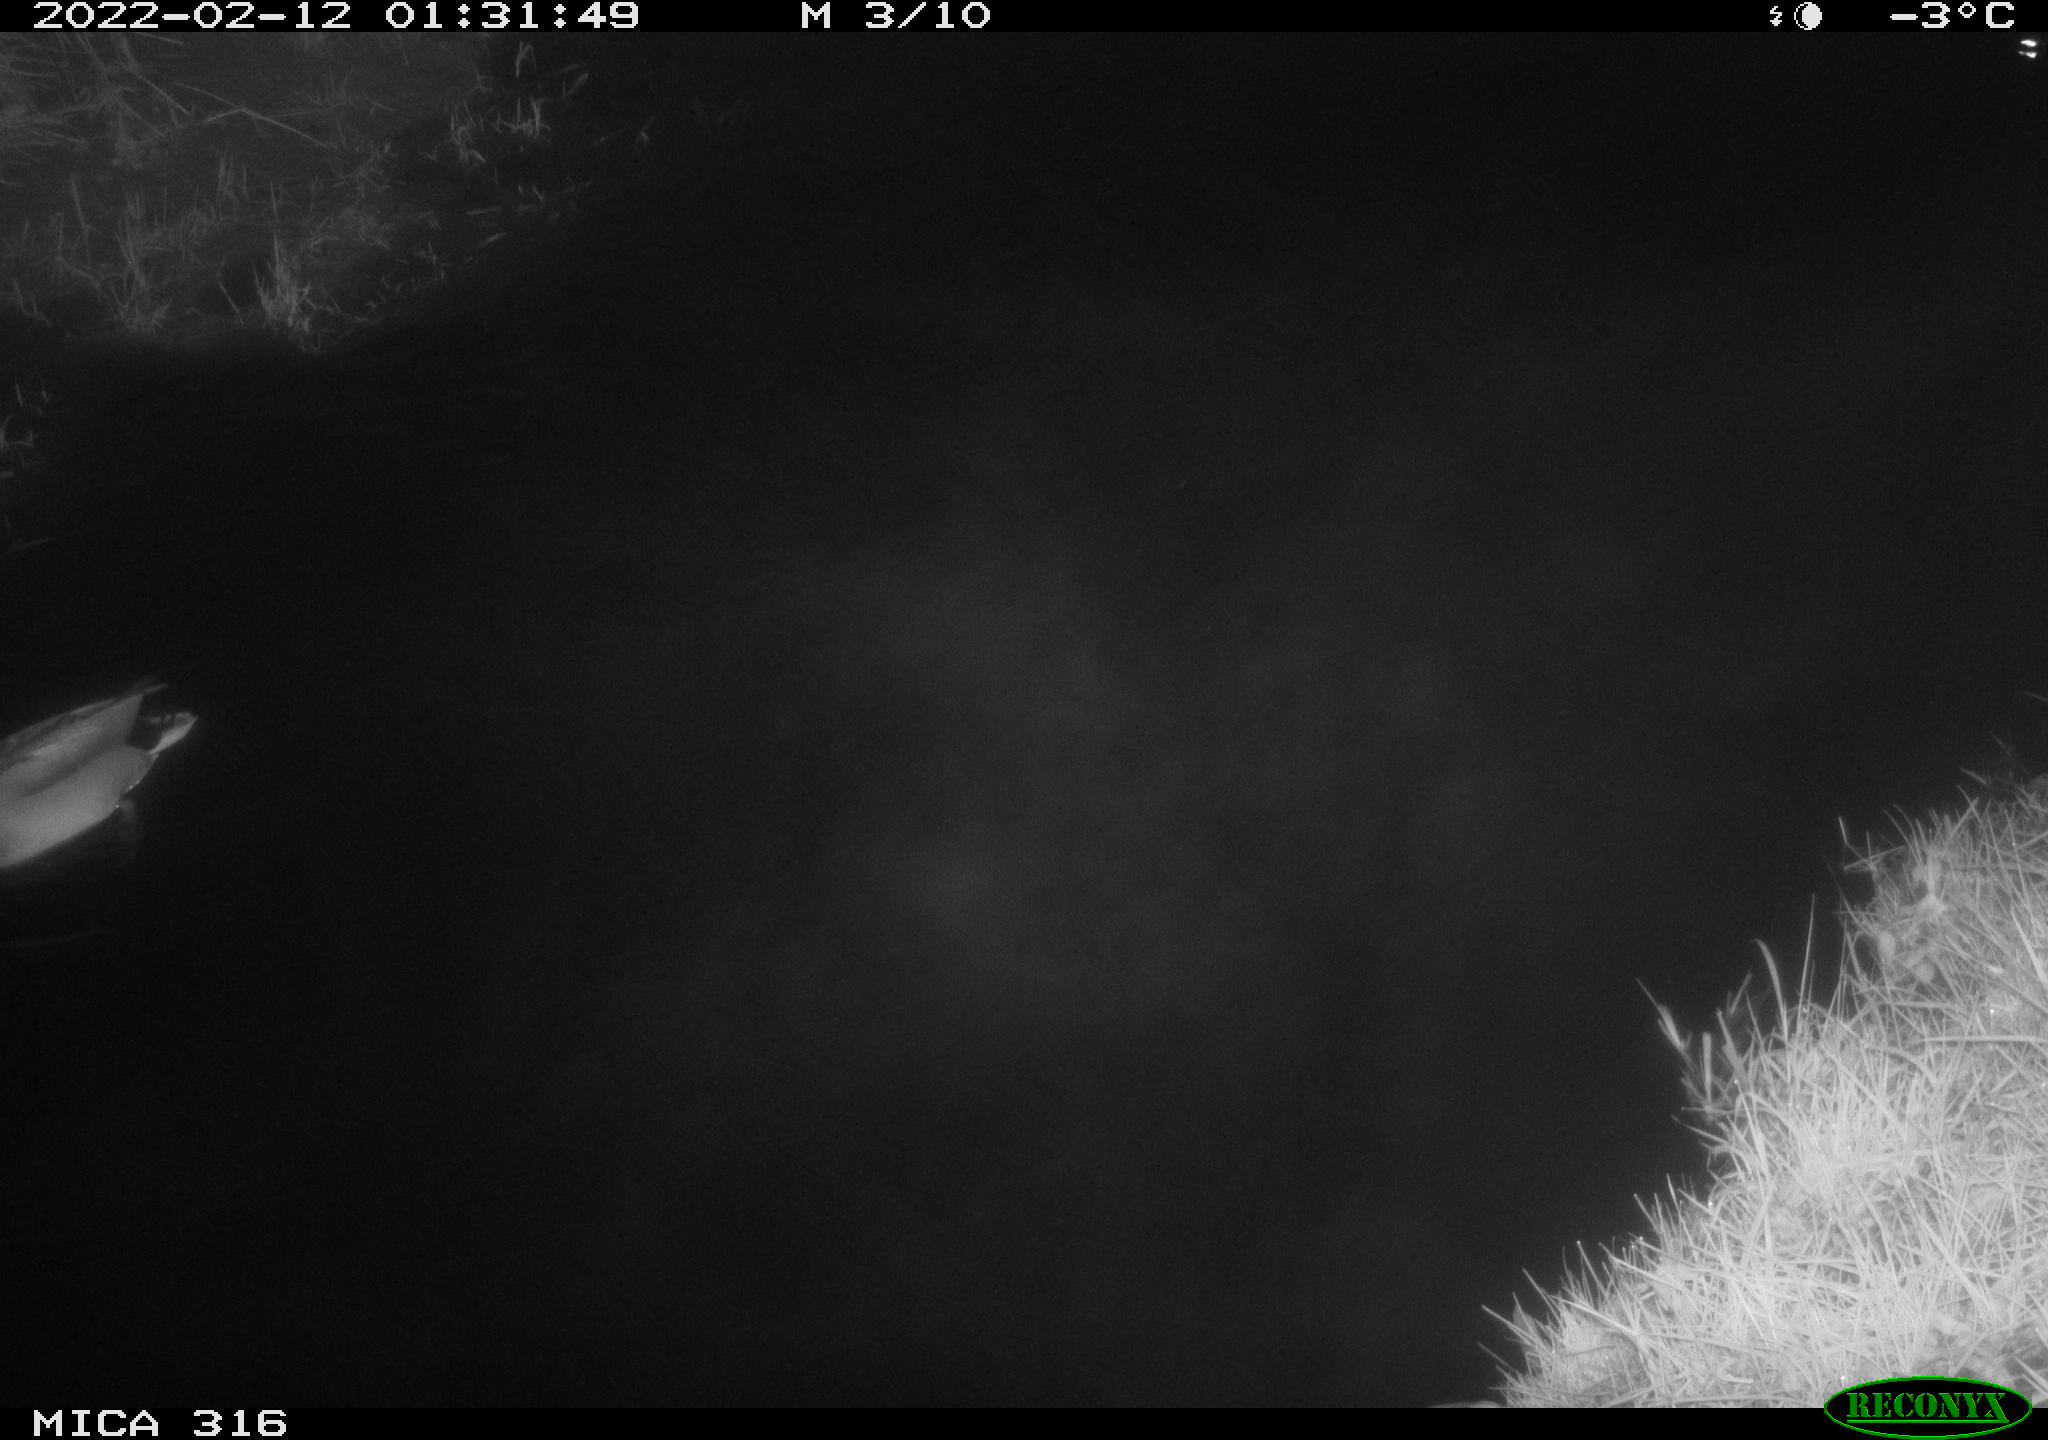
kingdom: Animalia
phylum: Chordata
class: Aves
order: Anseriformes
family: Anatidae
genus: Anas
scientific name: Anas platyrhynchos
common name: Mallard
